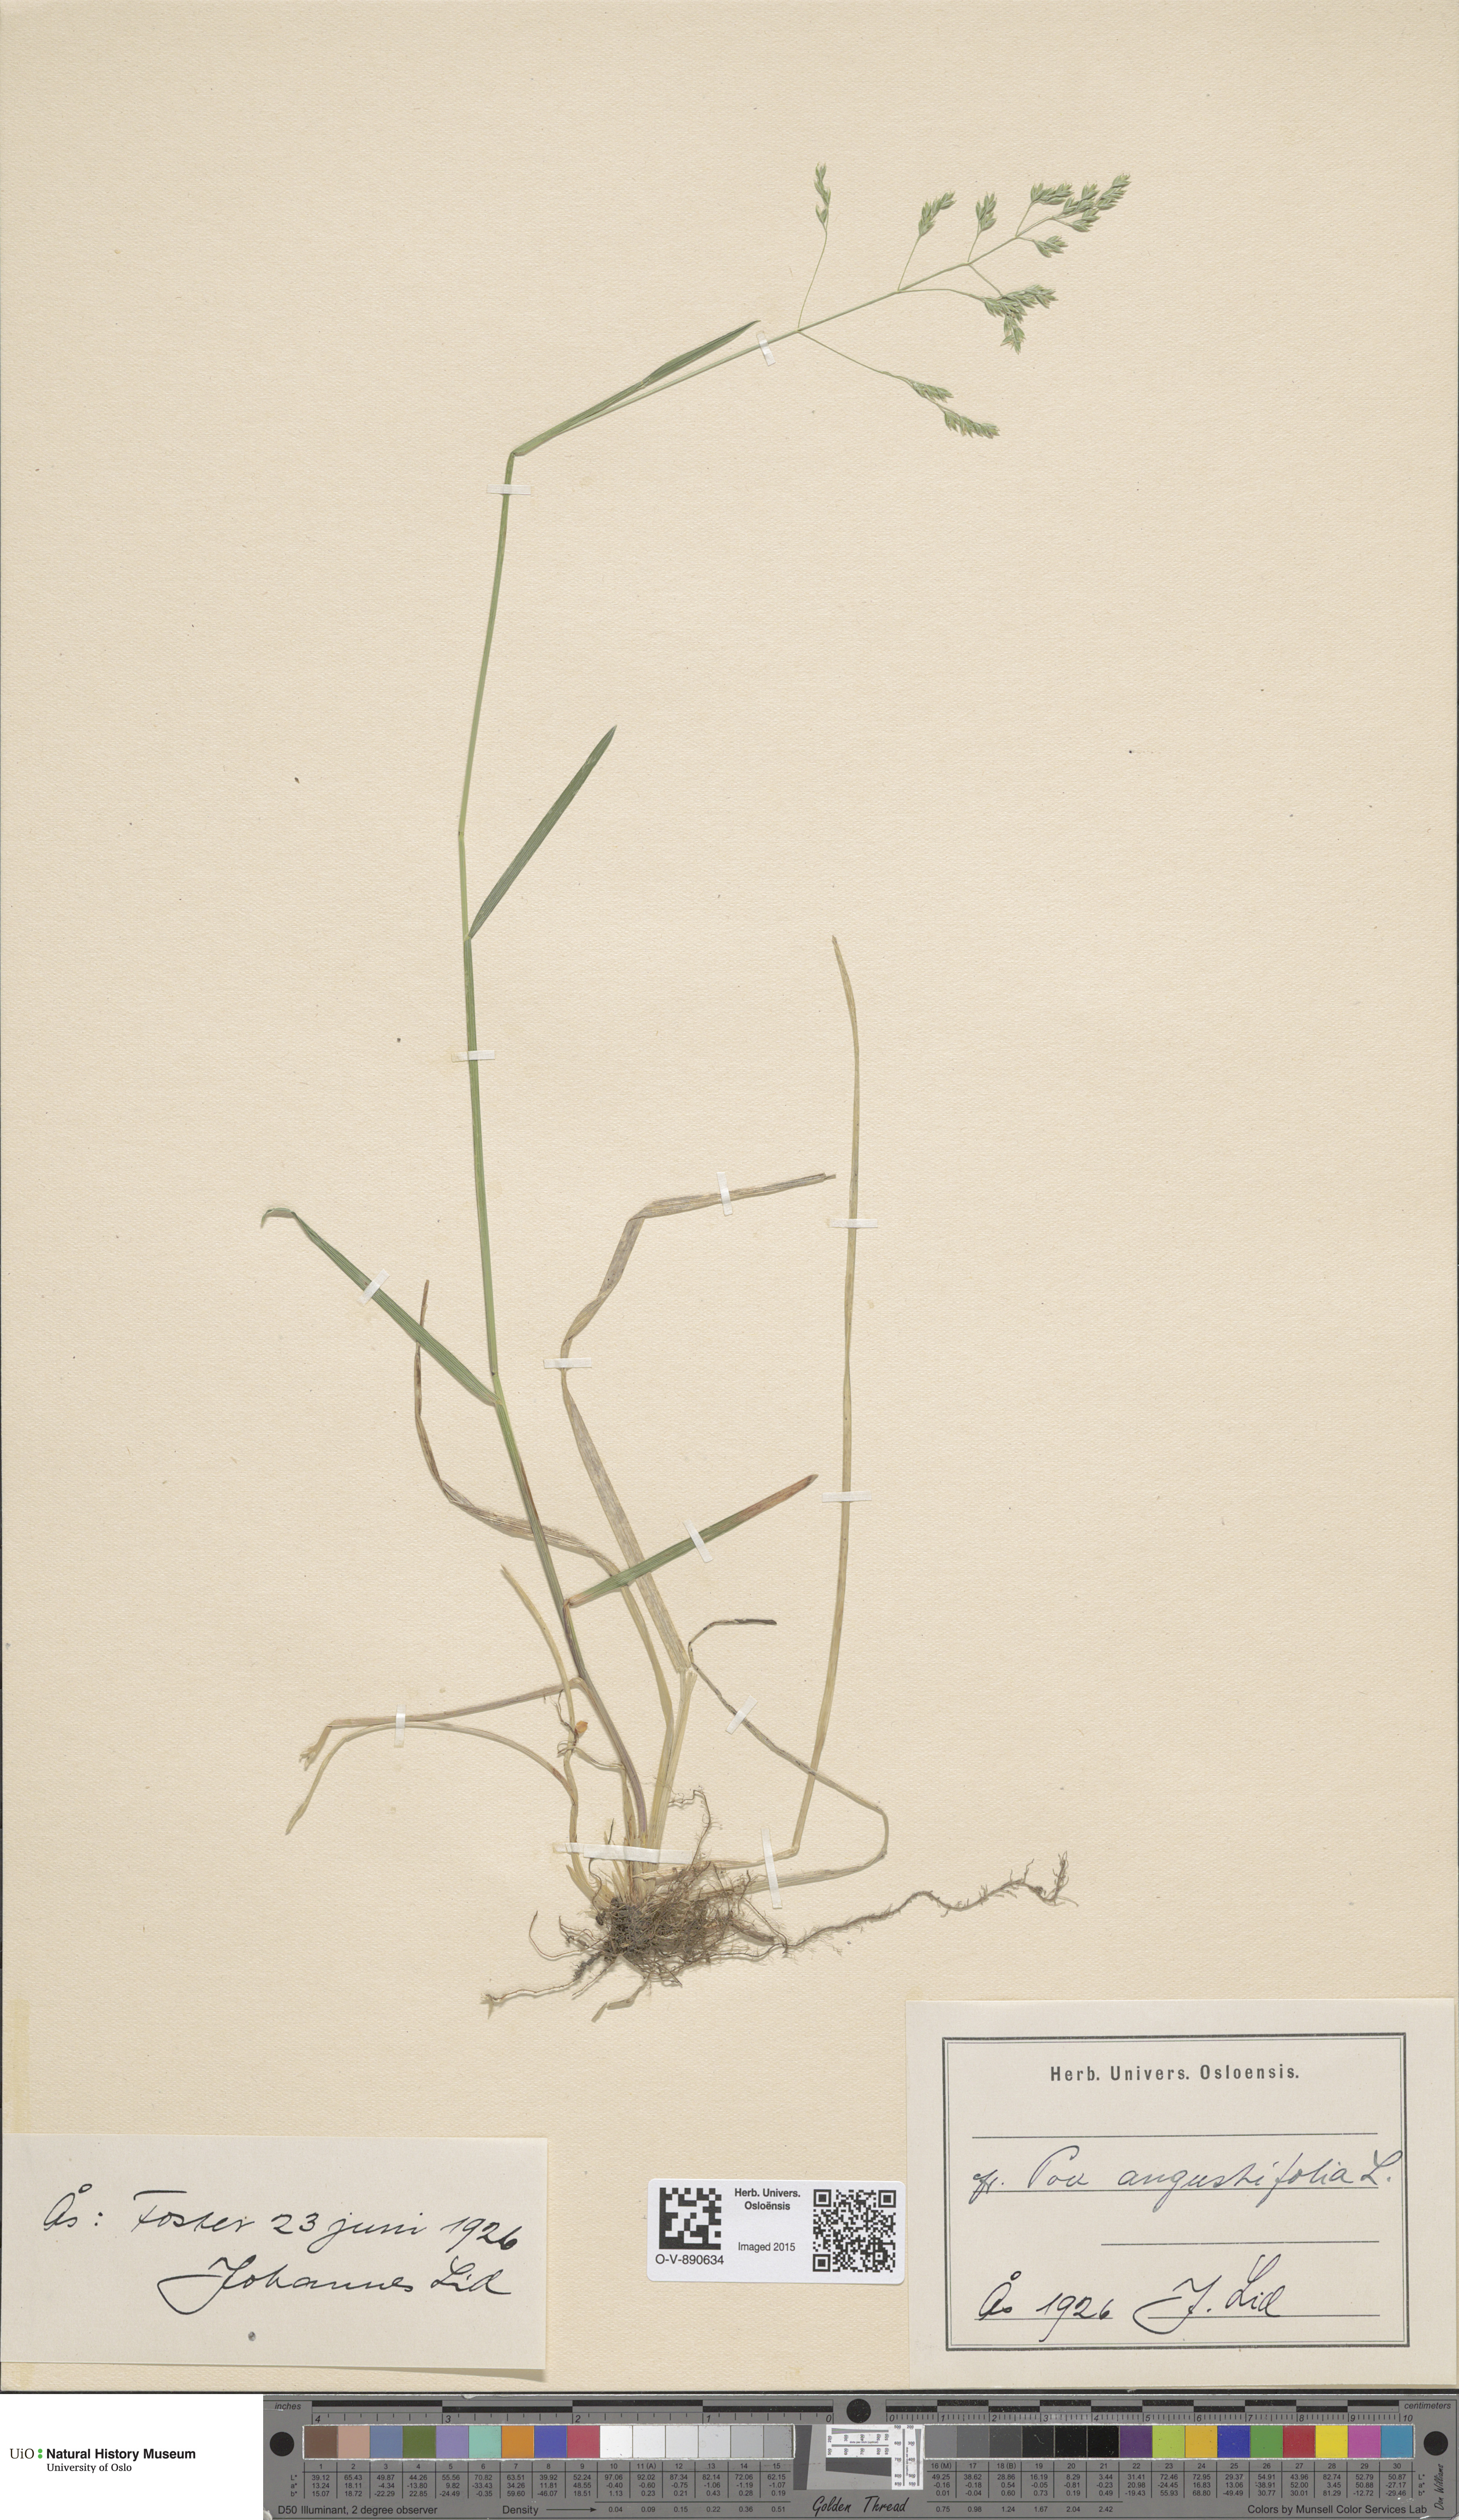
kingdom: Plantae
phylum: Tracheophyta
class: Liliopsida
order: Poales
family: Poaceae
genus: Poa
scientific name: Poa angustifolia
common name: Narrow-leaved meadow-grass
